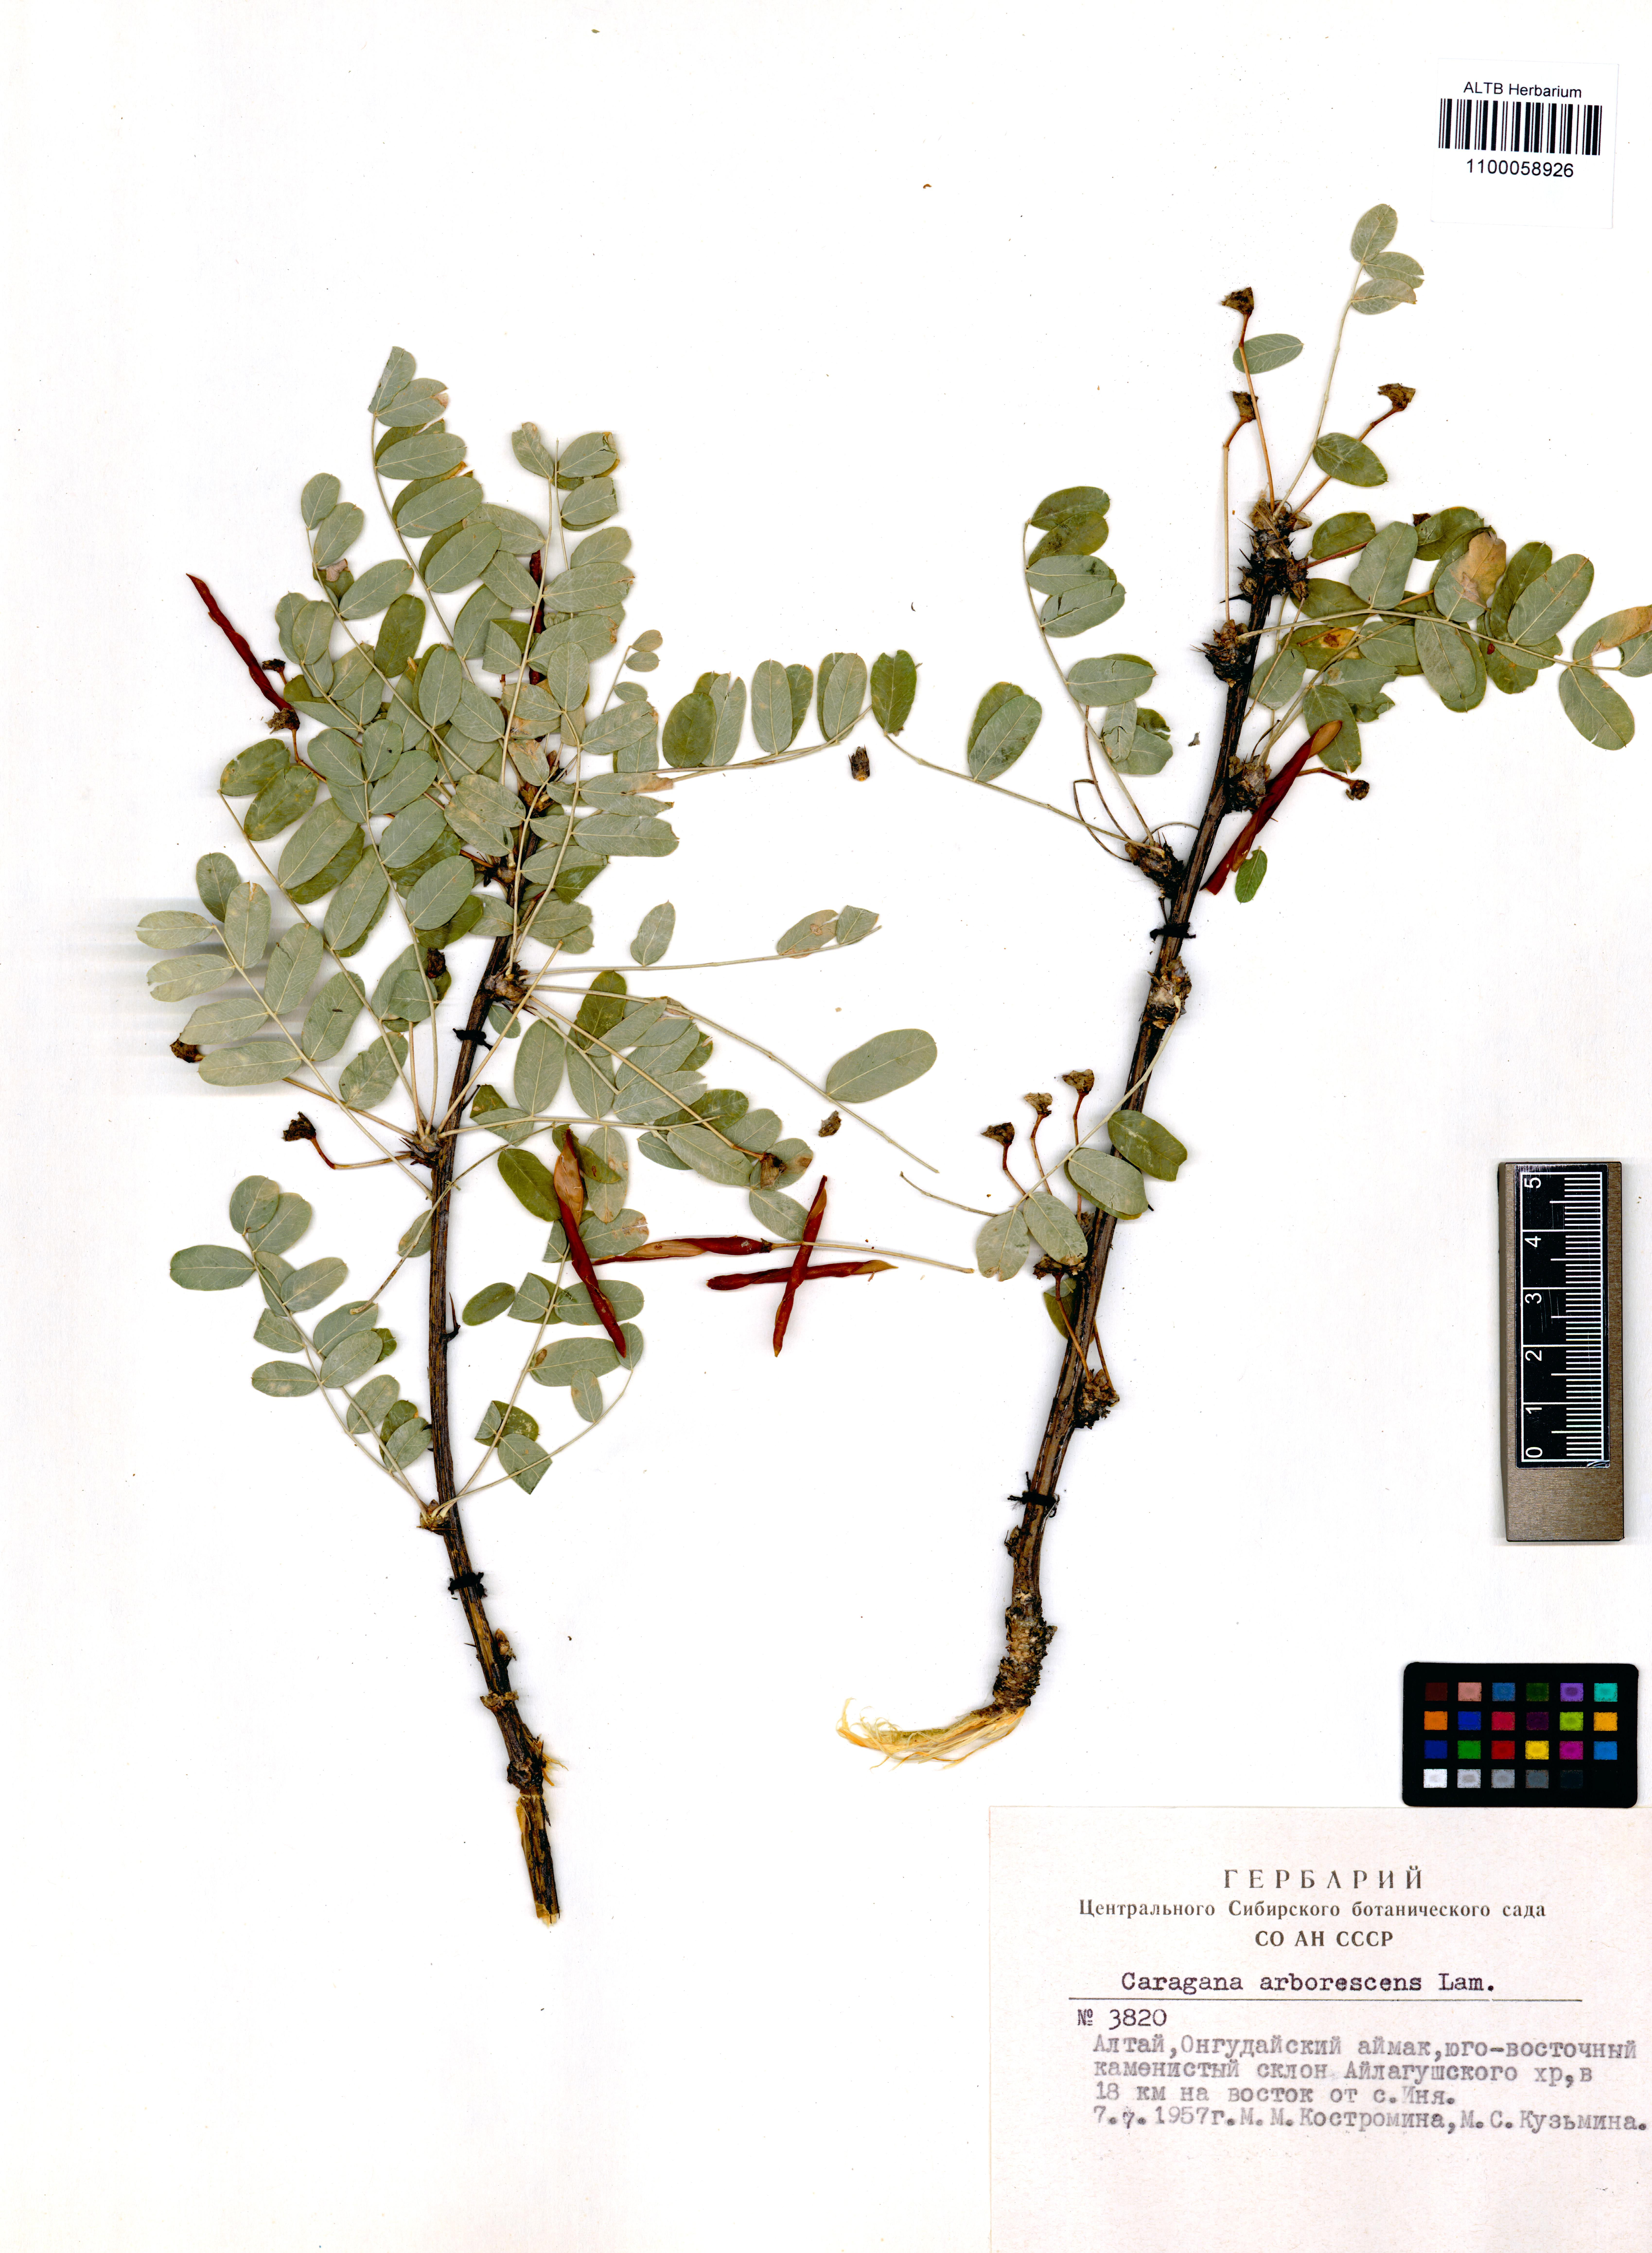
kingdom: Plantae
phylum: Tracheophyta
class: Magnoliopsida
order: Fabales
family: Fabaceae
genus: Caragana
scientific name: Caragana arborescens
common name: Siberian peashrub
